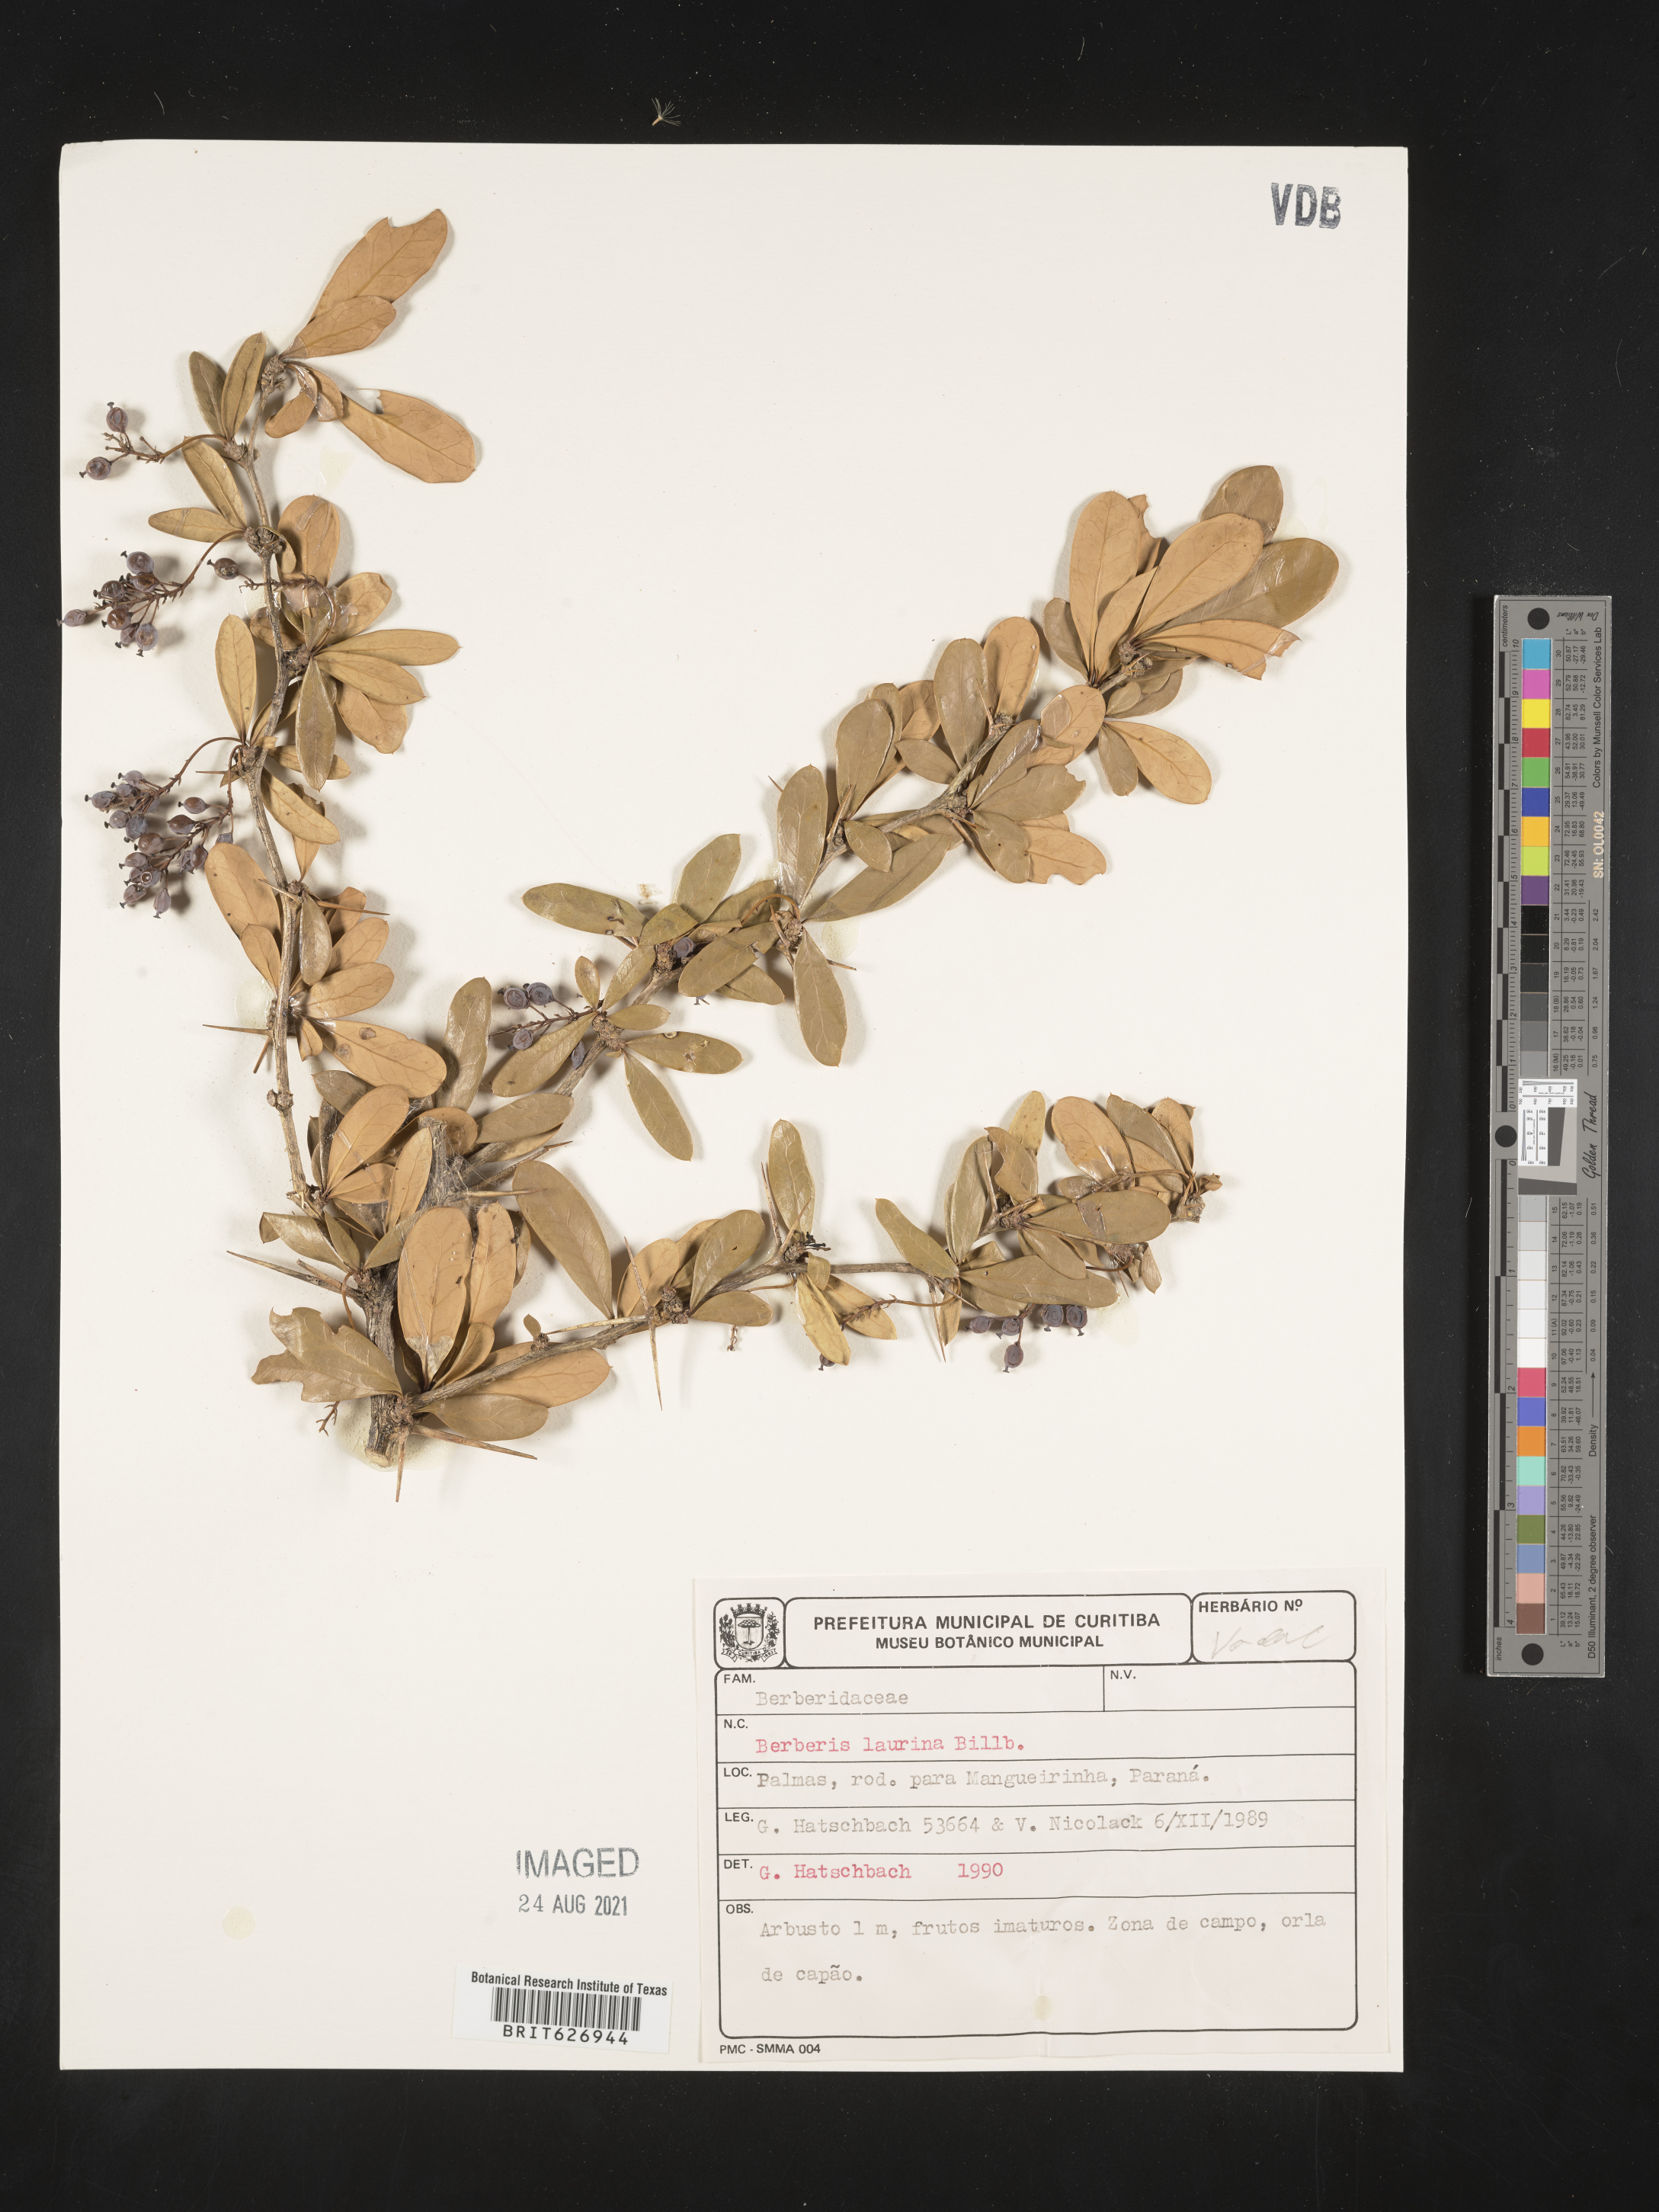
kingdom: Plantae
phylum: Tracheophyta
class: Magnoliopsida
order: Ranunculales
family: Berberidaceae
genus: Berberis
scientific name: Berberis laurina
